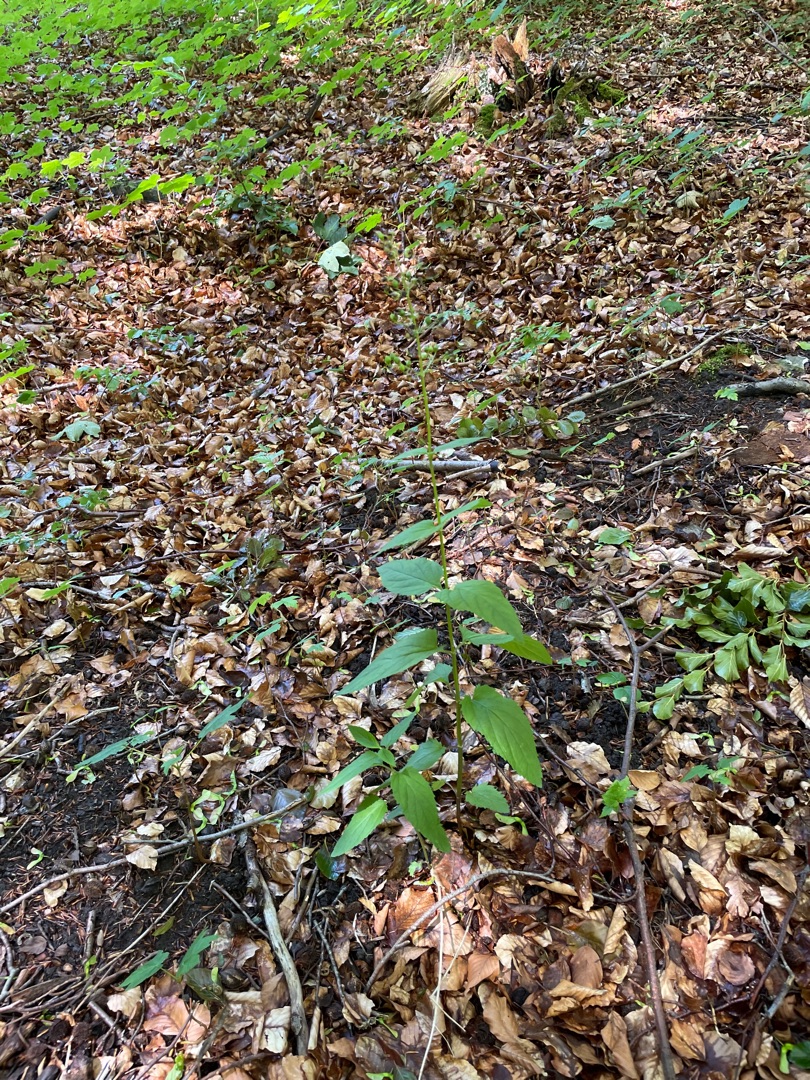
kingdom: Plantae
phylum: Tracheophyta
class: Magnoliopsida
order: Lamiales
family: Scrophulariaceae
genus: Scrophularia
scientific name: Scrophularia nodosa
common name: Knoldet brunrod
